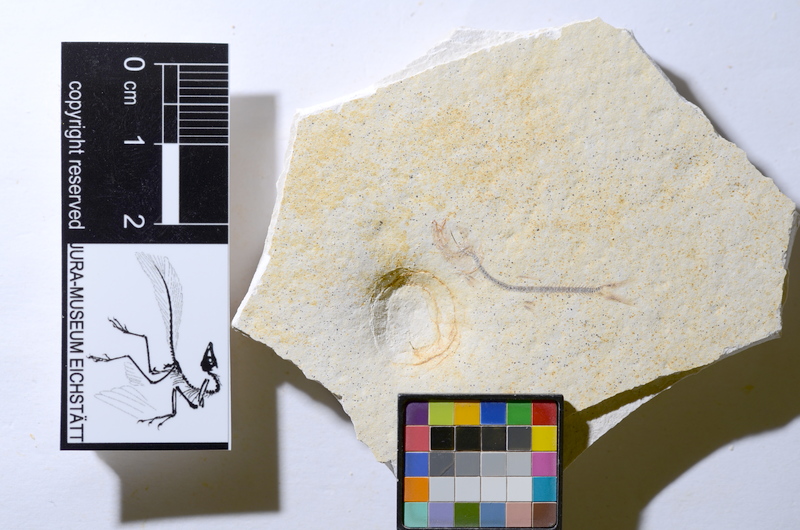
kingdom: Animalia
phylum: Chordata
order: Salmoniformes
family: Orthogonikleithridae
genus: Orthogonikleithrus
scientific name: Orthogonikleithrus hoelli
